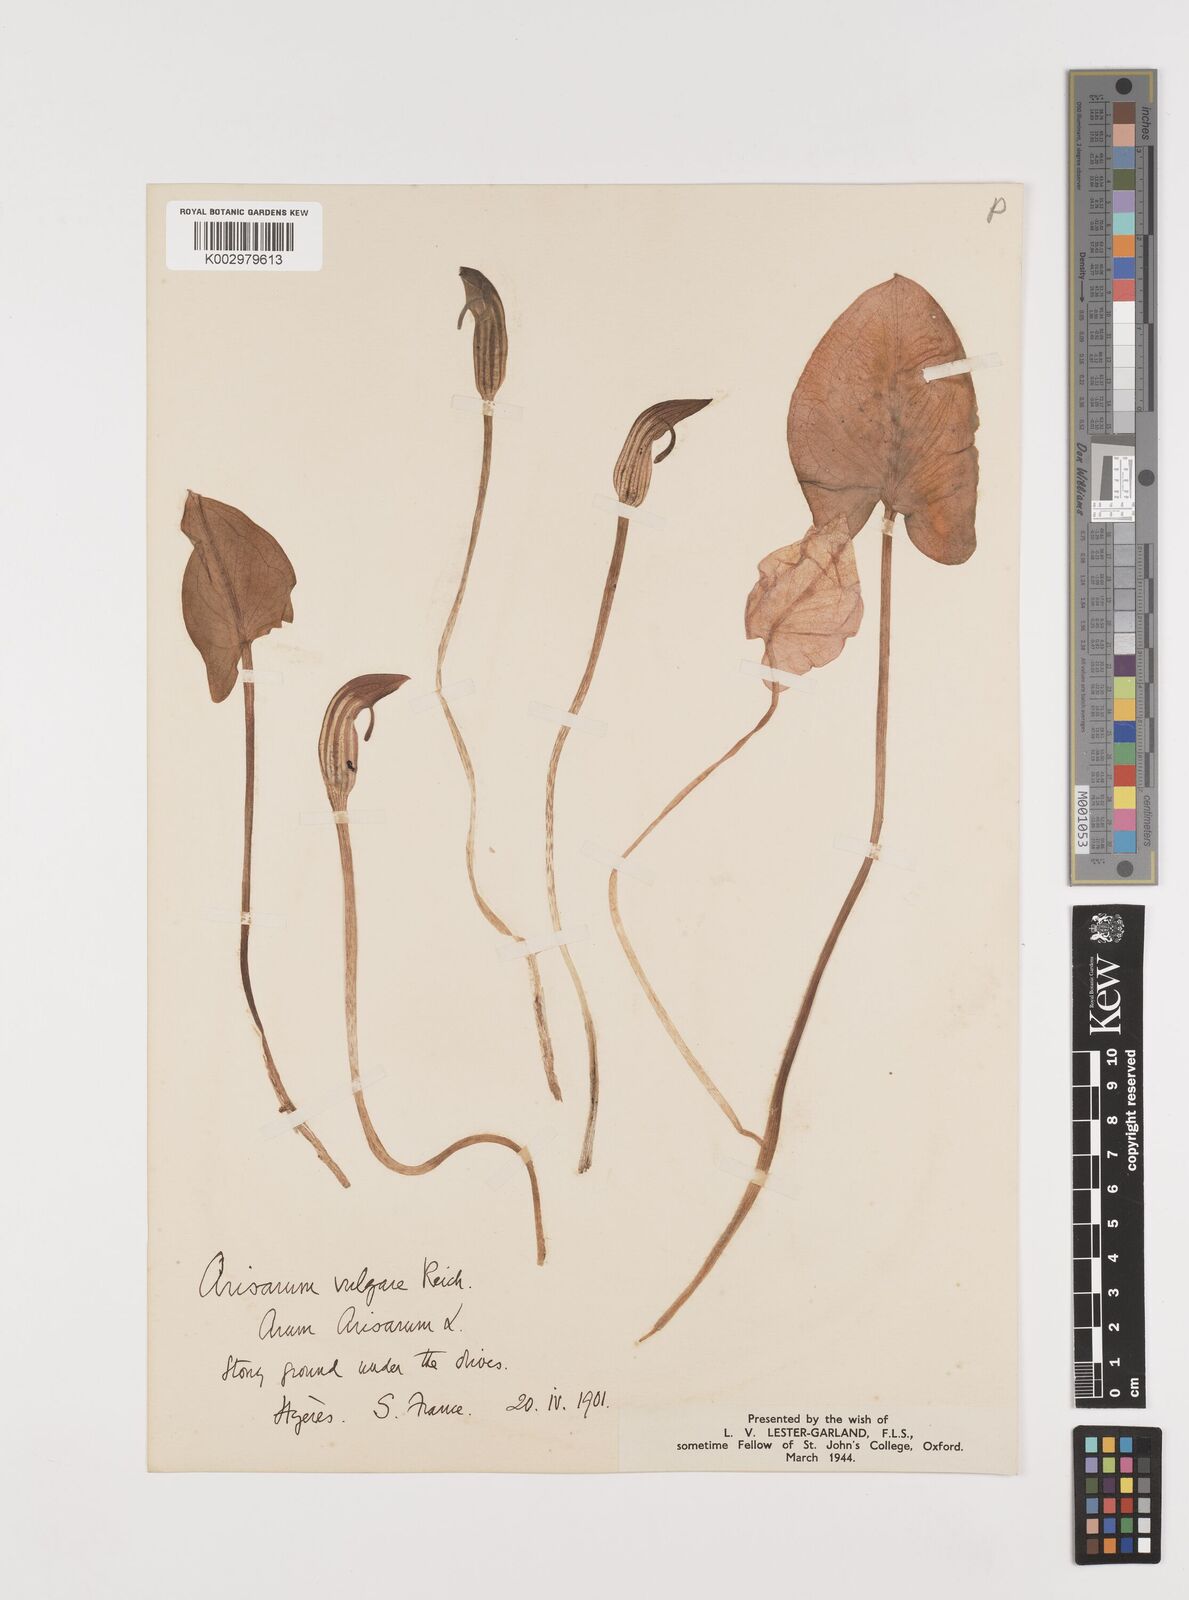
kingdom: Plantae
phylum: Tracheophyta
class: Liliopsida
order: Alismatales
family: Araceae
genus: Arisarum
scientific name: Arisarum vulgare
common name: Common arisarum
